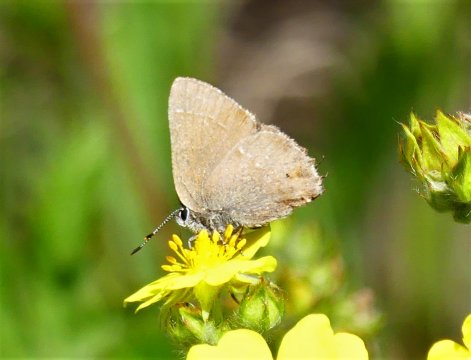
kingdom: Animalia
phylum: Arthropoda
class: Insecta
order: Lepidoptera
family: Lycaenidae
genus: Satyrium
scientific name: Satyrium
